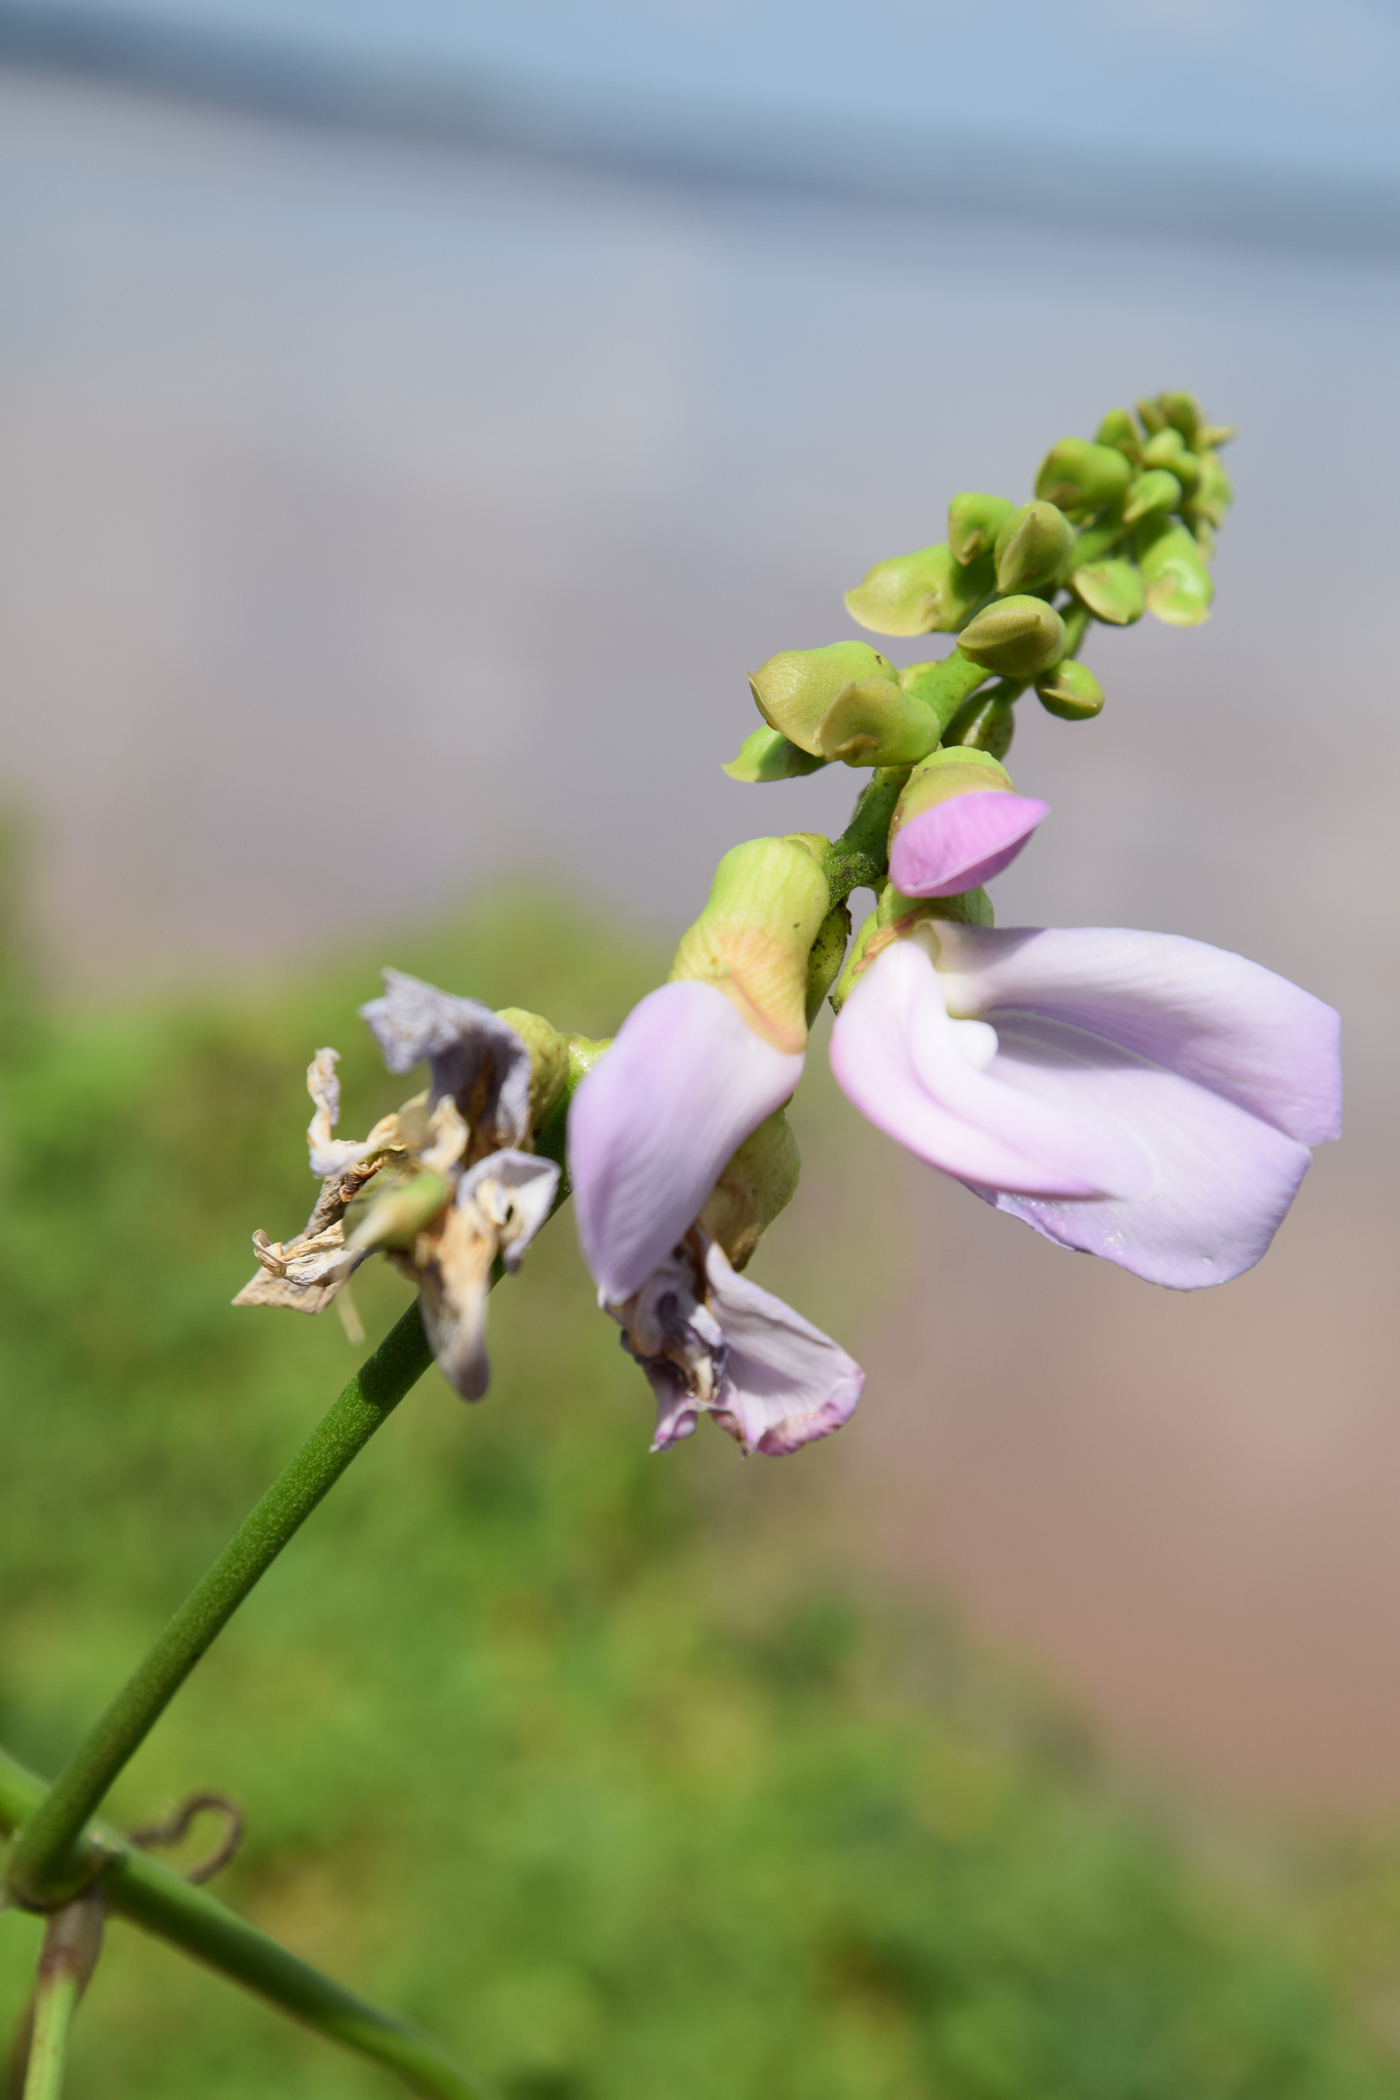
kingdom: Plantae
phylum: Tracheophyta
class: Magnoliopsida
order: Fabales
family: Fabaceae
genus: Canavalia
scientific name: Canavalia cathartica
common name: Maunaloa
